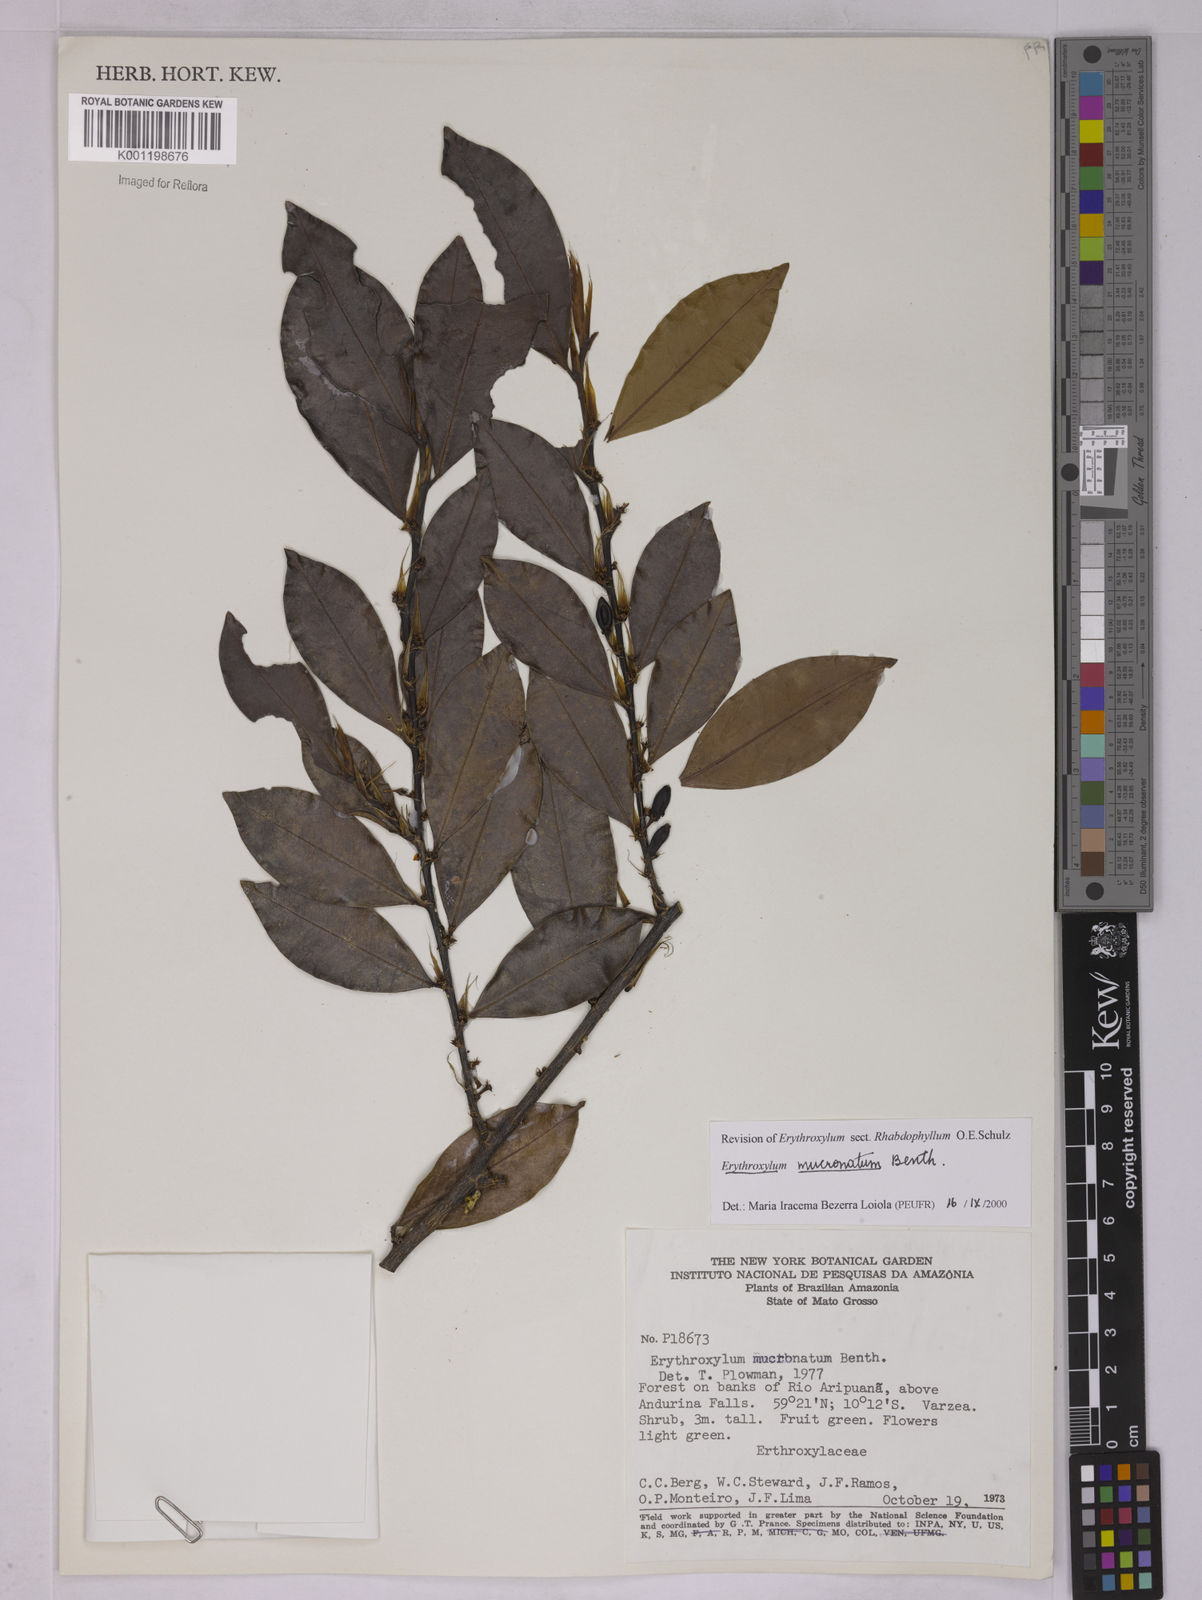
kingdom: Plantae
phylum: Tracheophyta
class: Magnoliopsida
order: Malpighiales
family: Erythroxylaceae
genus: Erythroxylum
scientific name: Erythroxylum mucronatum
